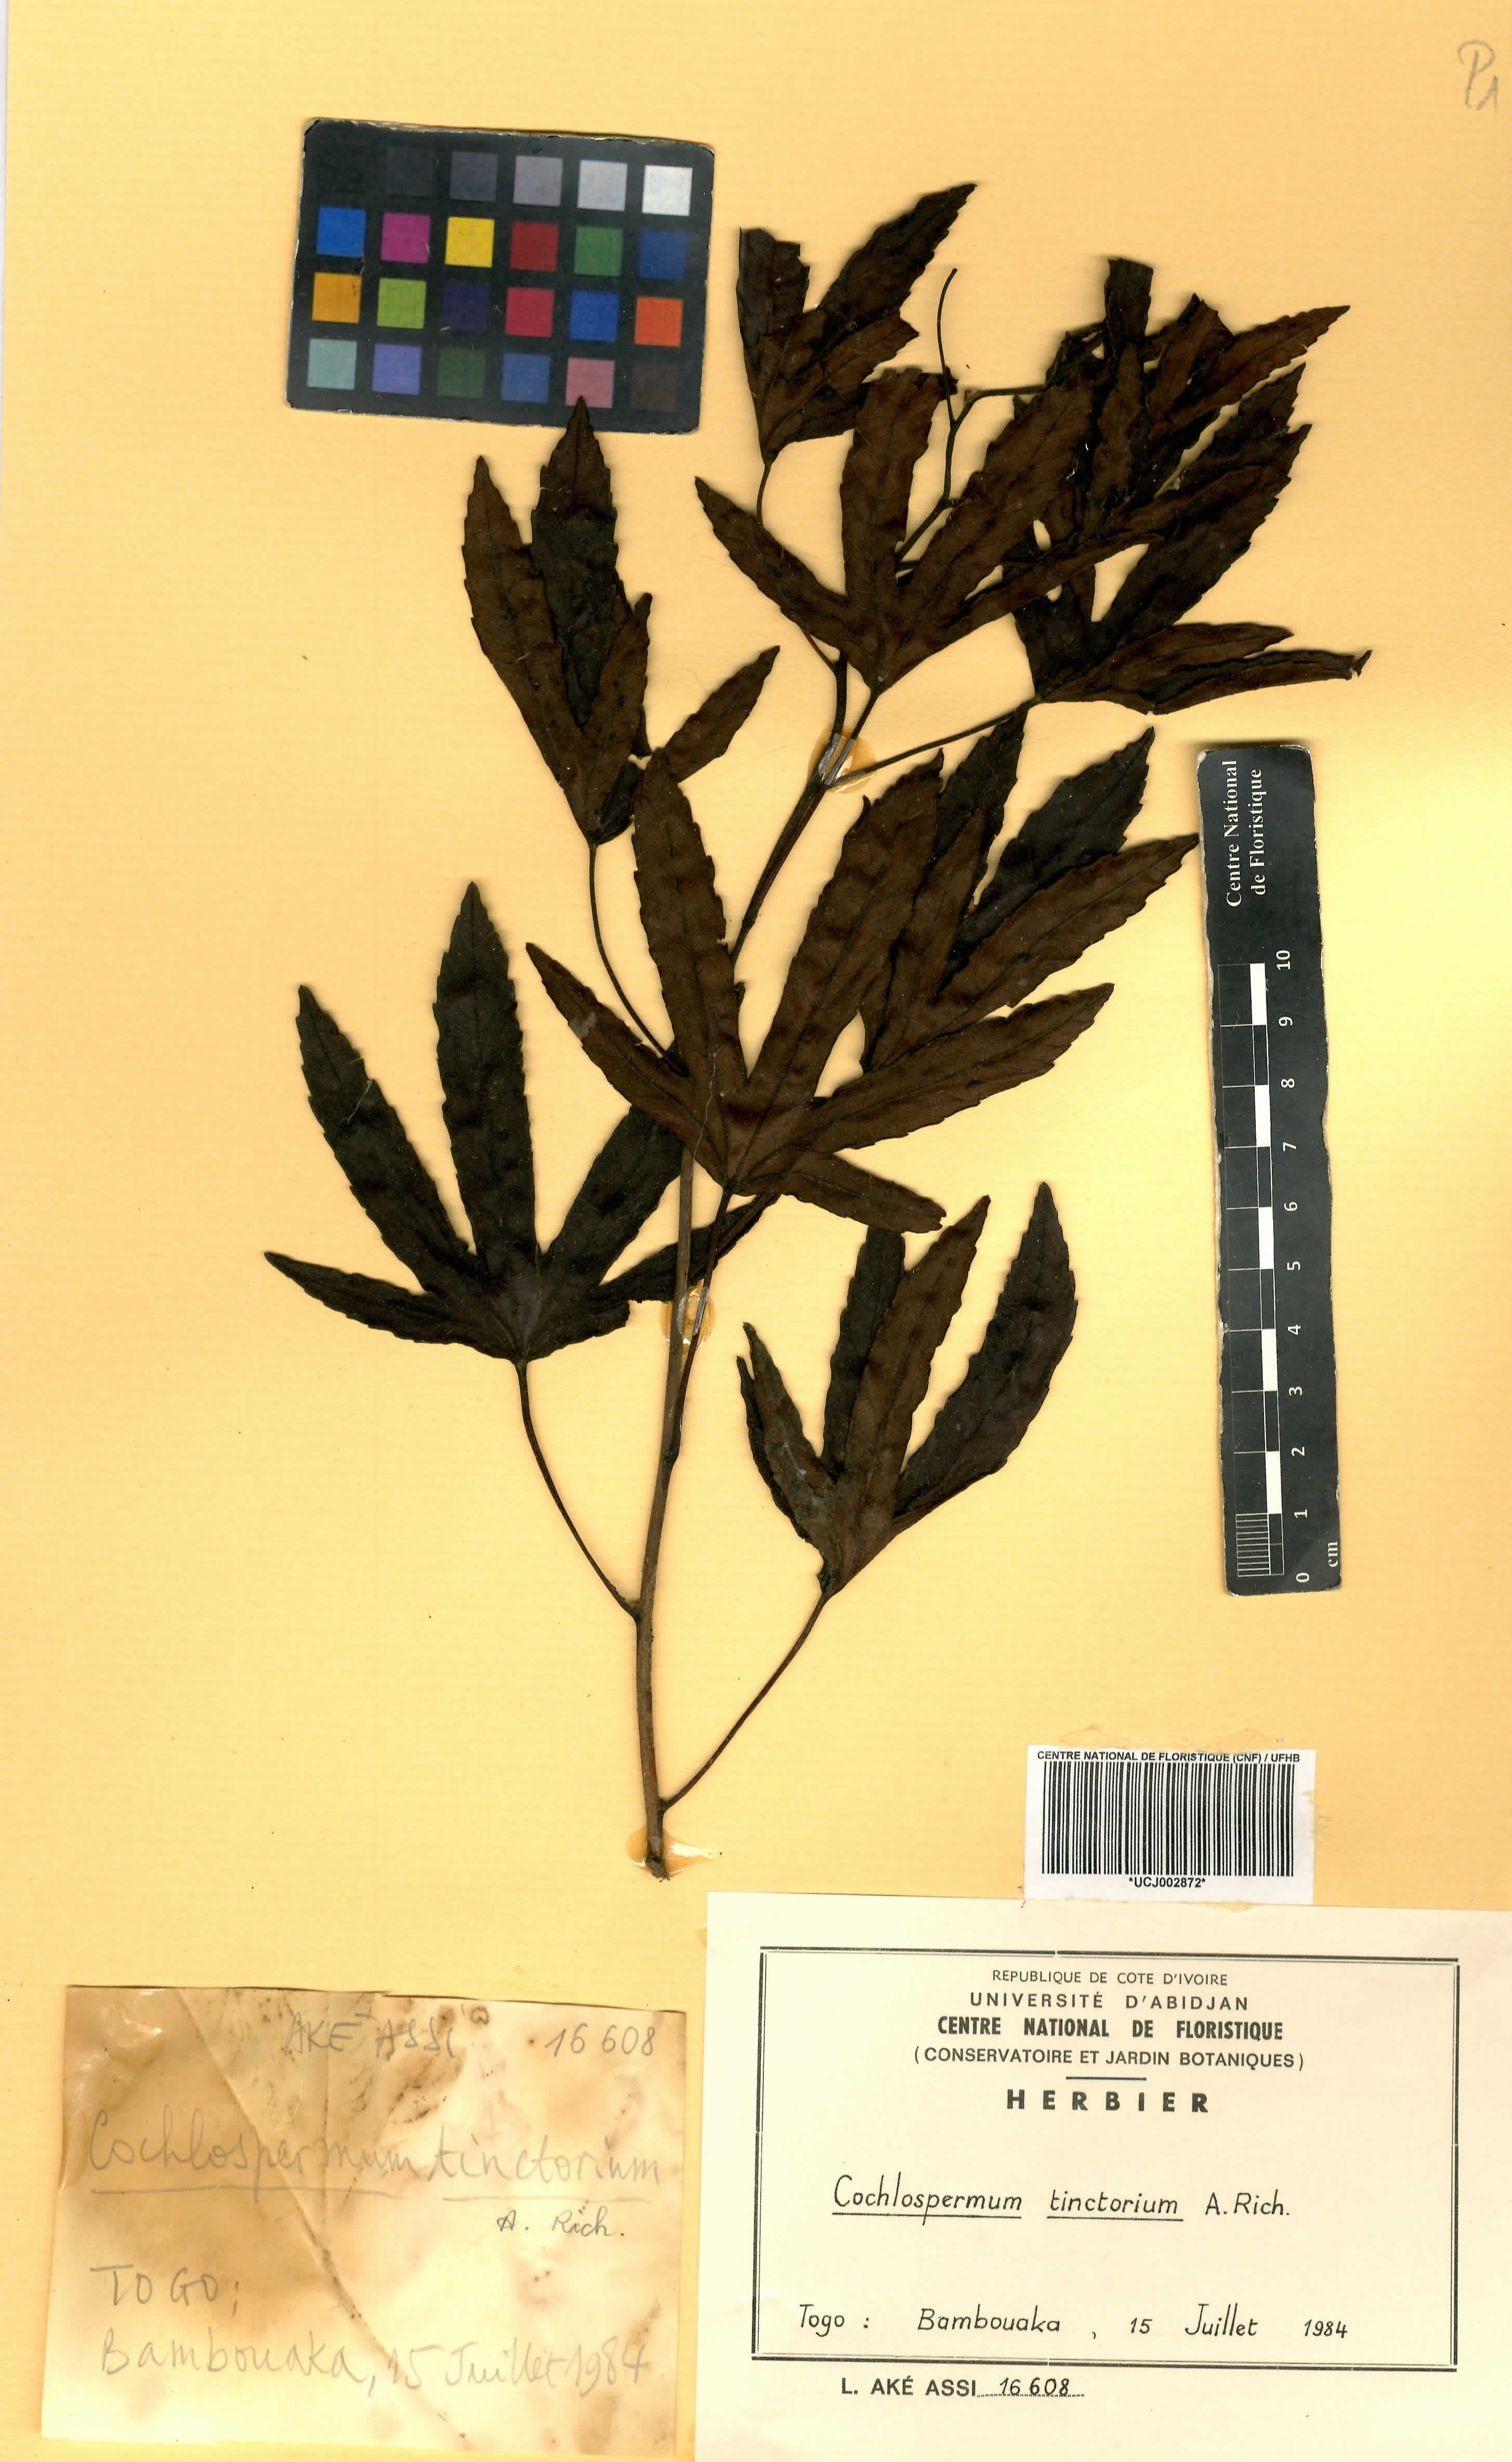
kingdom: Plantae
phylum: Tracheophyta
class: Magnoliopsida
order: Malvales
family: Cochlospermaceae
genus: Cochlospermum
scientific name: Cochlospermum tinctorium
